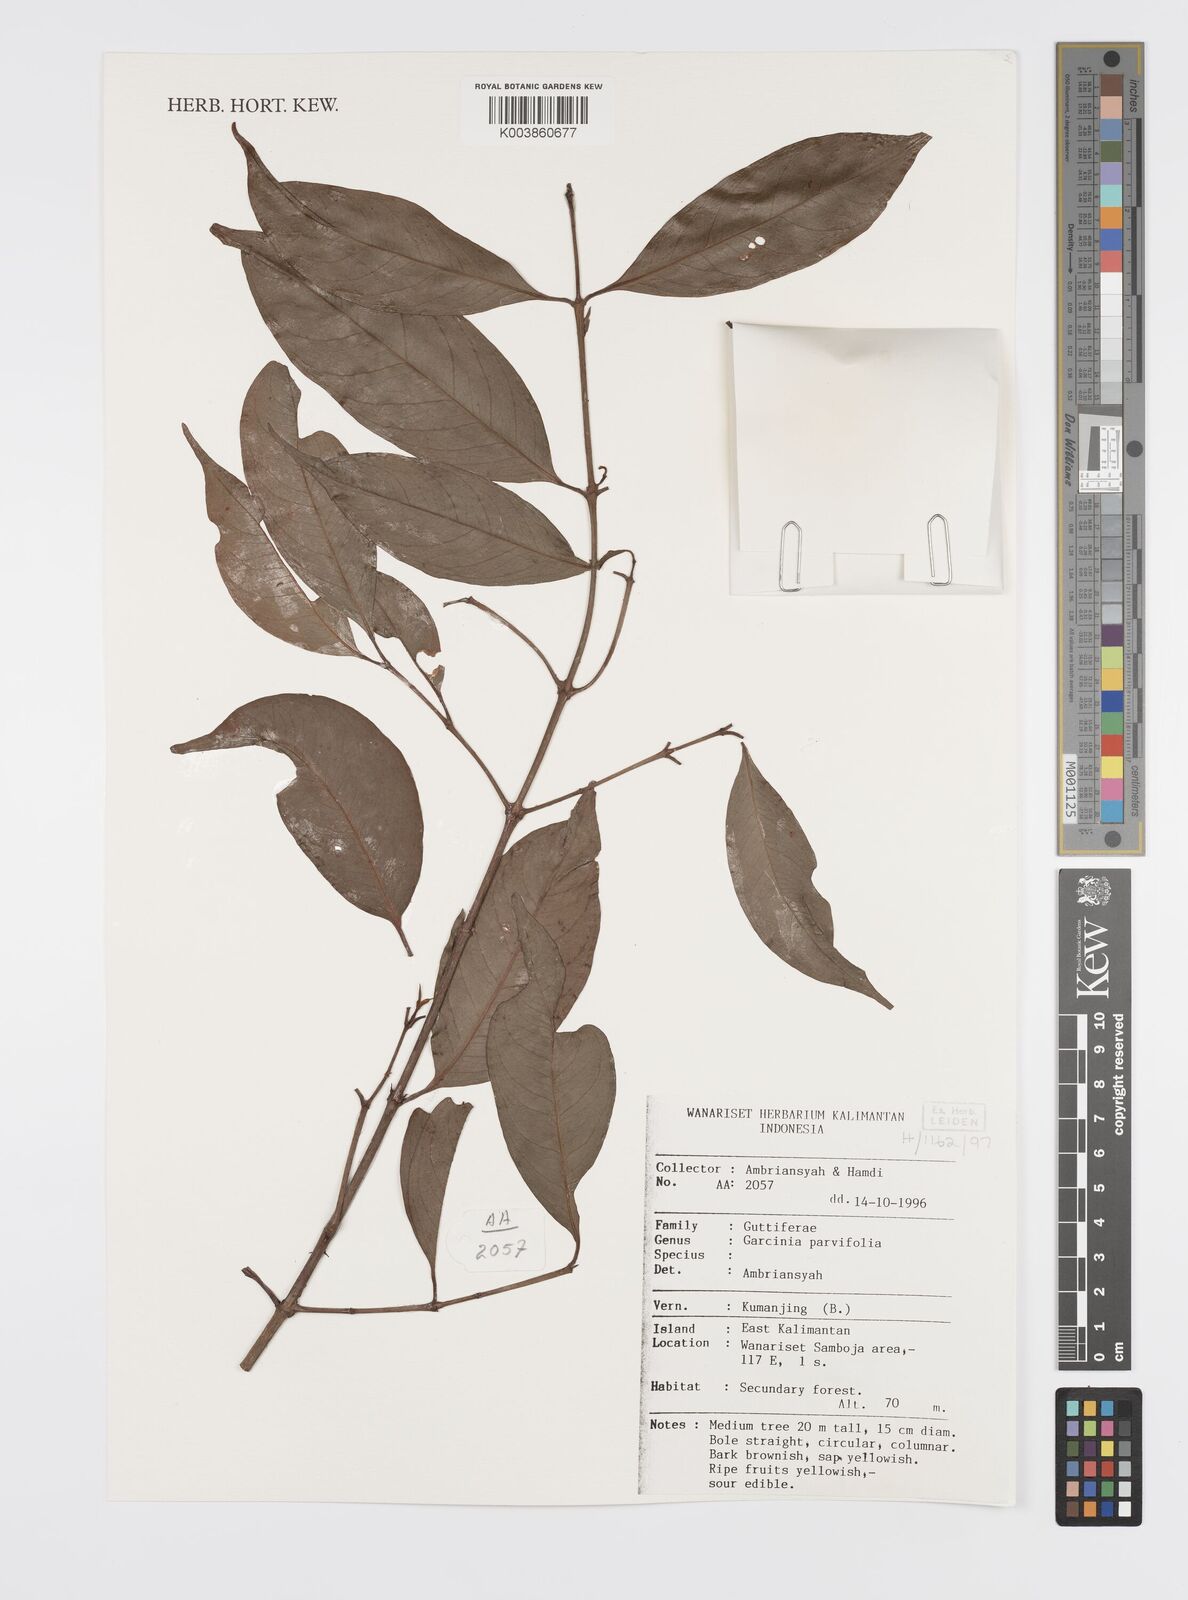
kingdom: Plantae
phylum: Tracheophyta
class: Magnoliopsida
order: Malpighiales
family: Clusiaceae
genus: Garcinia
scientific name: Garcinia parvifolia
